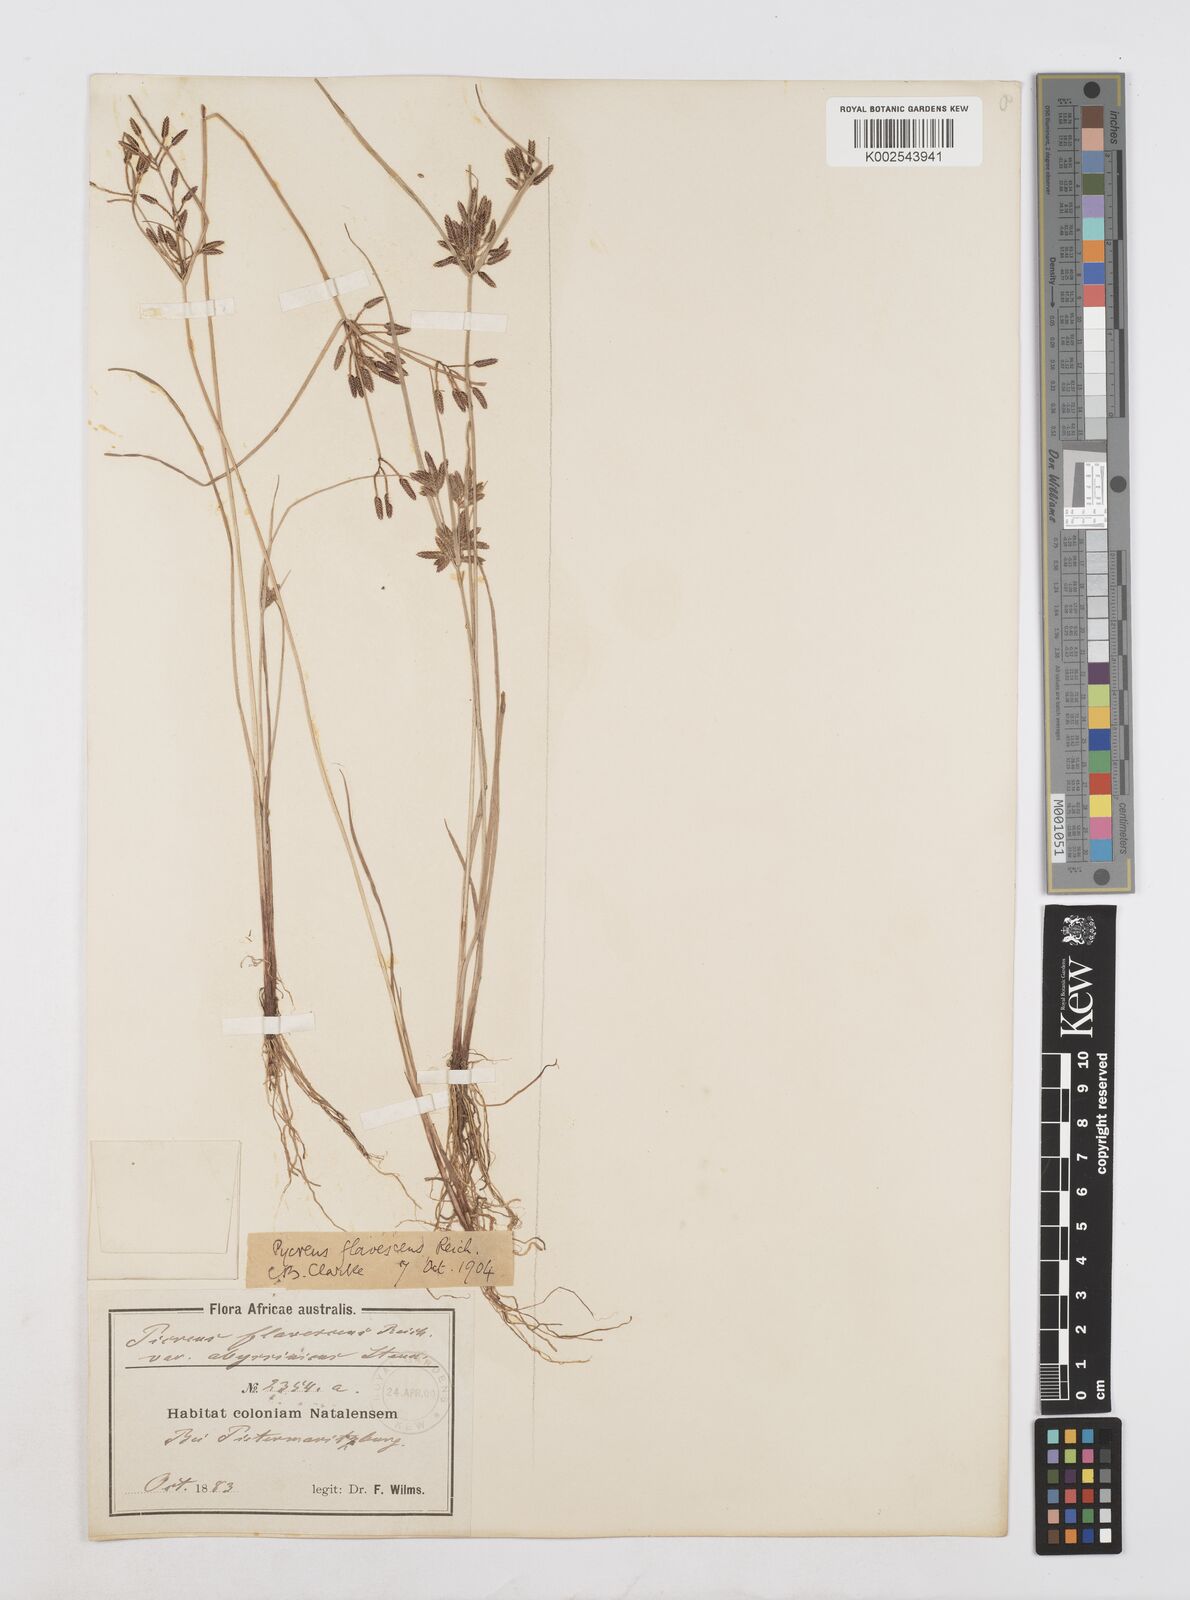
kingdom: Plantae
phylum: Tracheophyta
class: Liliopsida
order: Poales
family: Cyperaceae
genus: Cyperus
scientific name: Cyperus flavescens
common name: Yellow galingale
